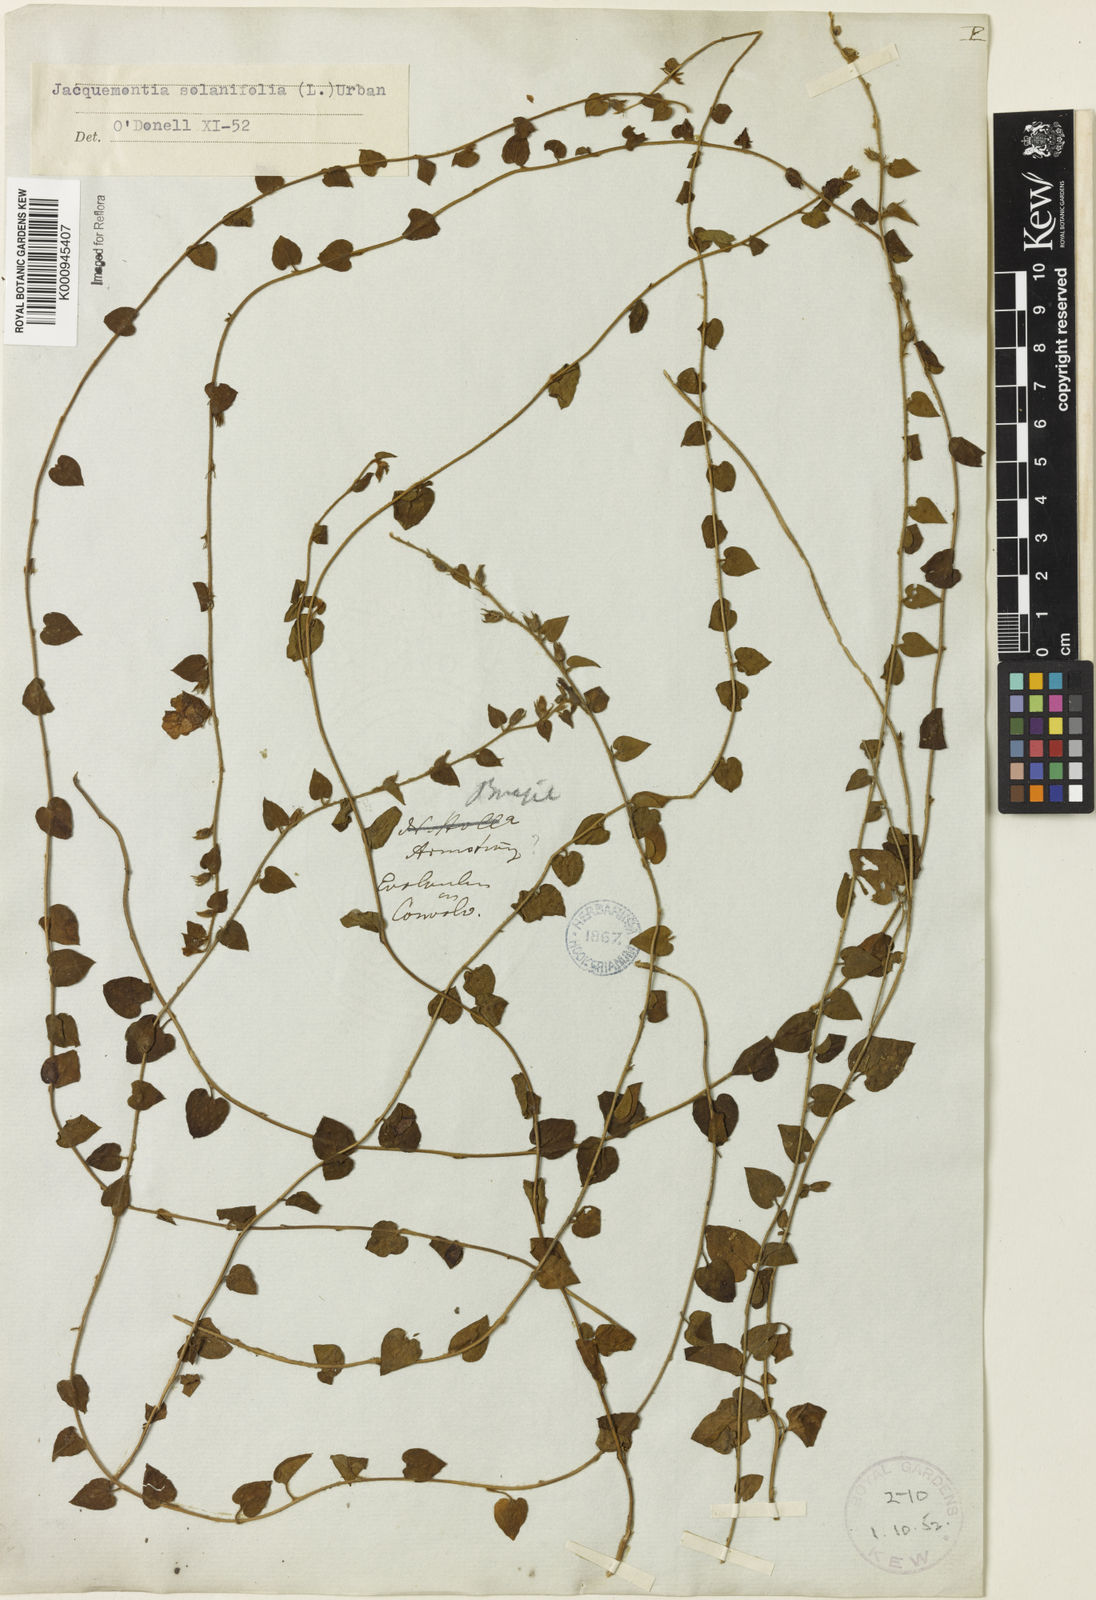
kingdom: Plantae
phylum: Tracheophyta
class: Magnoliopsida
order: Solanales
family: Convolvulaceae
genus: Jacquemontia
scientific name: Jacquemontia solanifolia
